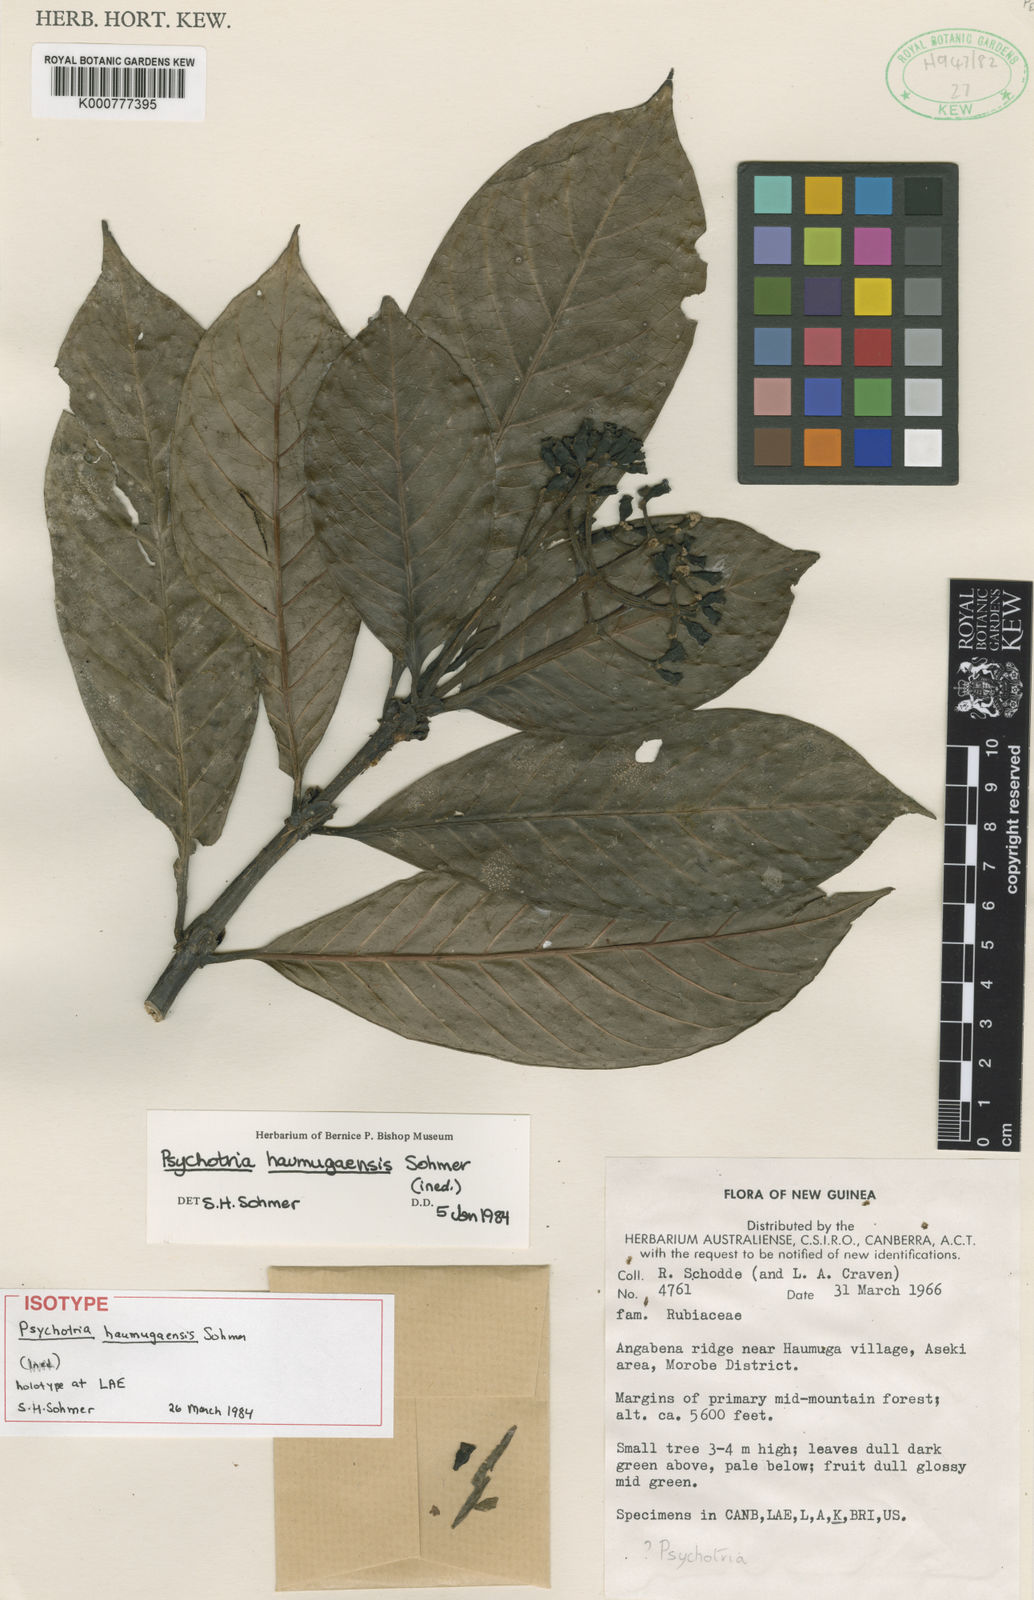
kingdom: Plantae
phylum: Tracheophyta
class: Magnoliopsida
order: Gentianales
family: Rubiaceae
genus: Psychotria
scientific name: Psychotria haumugaensis
